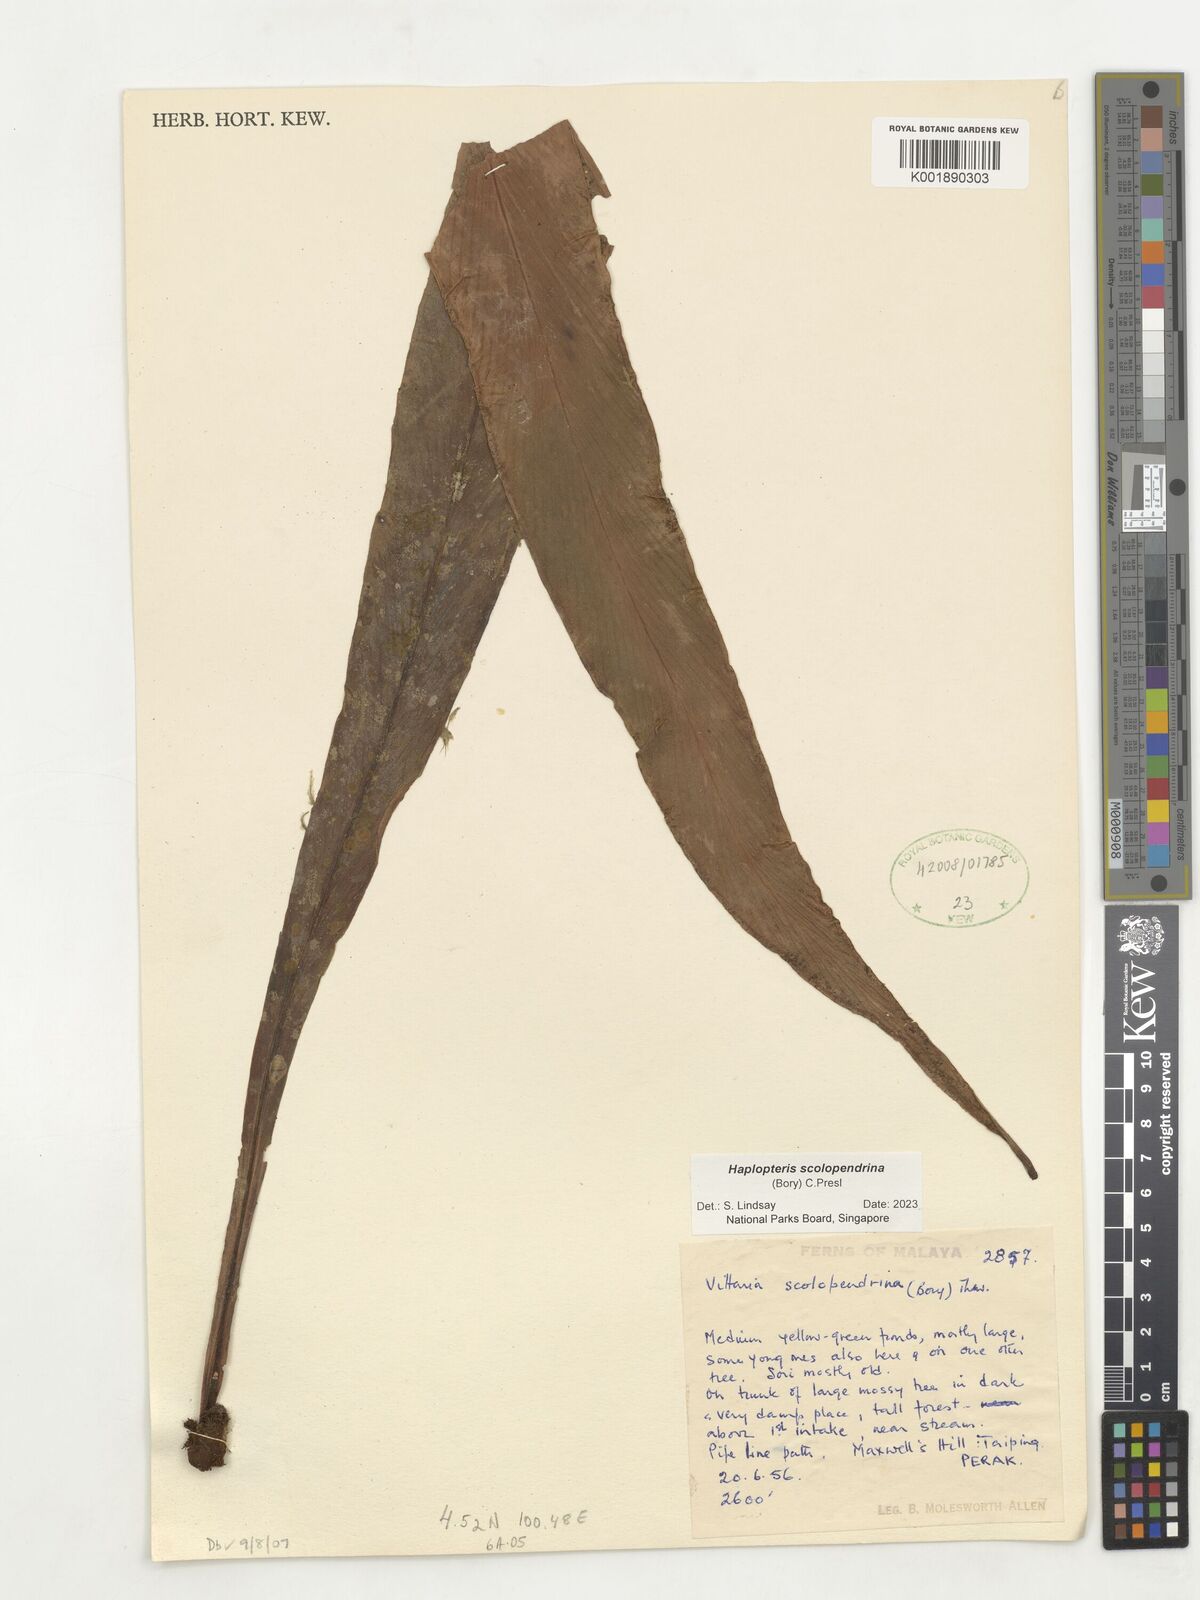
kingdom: Plantae
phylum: Tracheophyta
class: Polypodiopsida
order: Polypodiales
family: Pteridaceae
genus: Haplopteris
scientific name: Haplopteris scolopendrina
